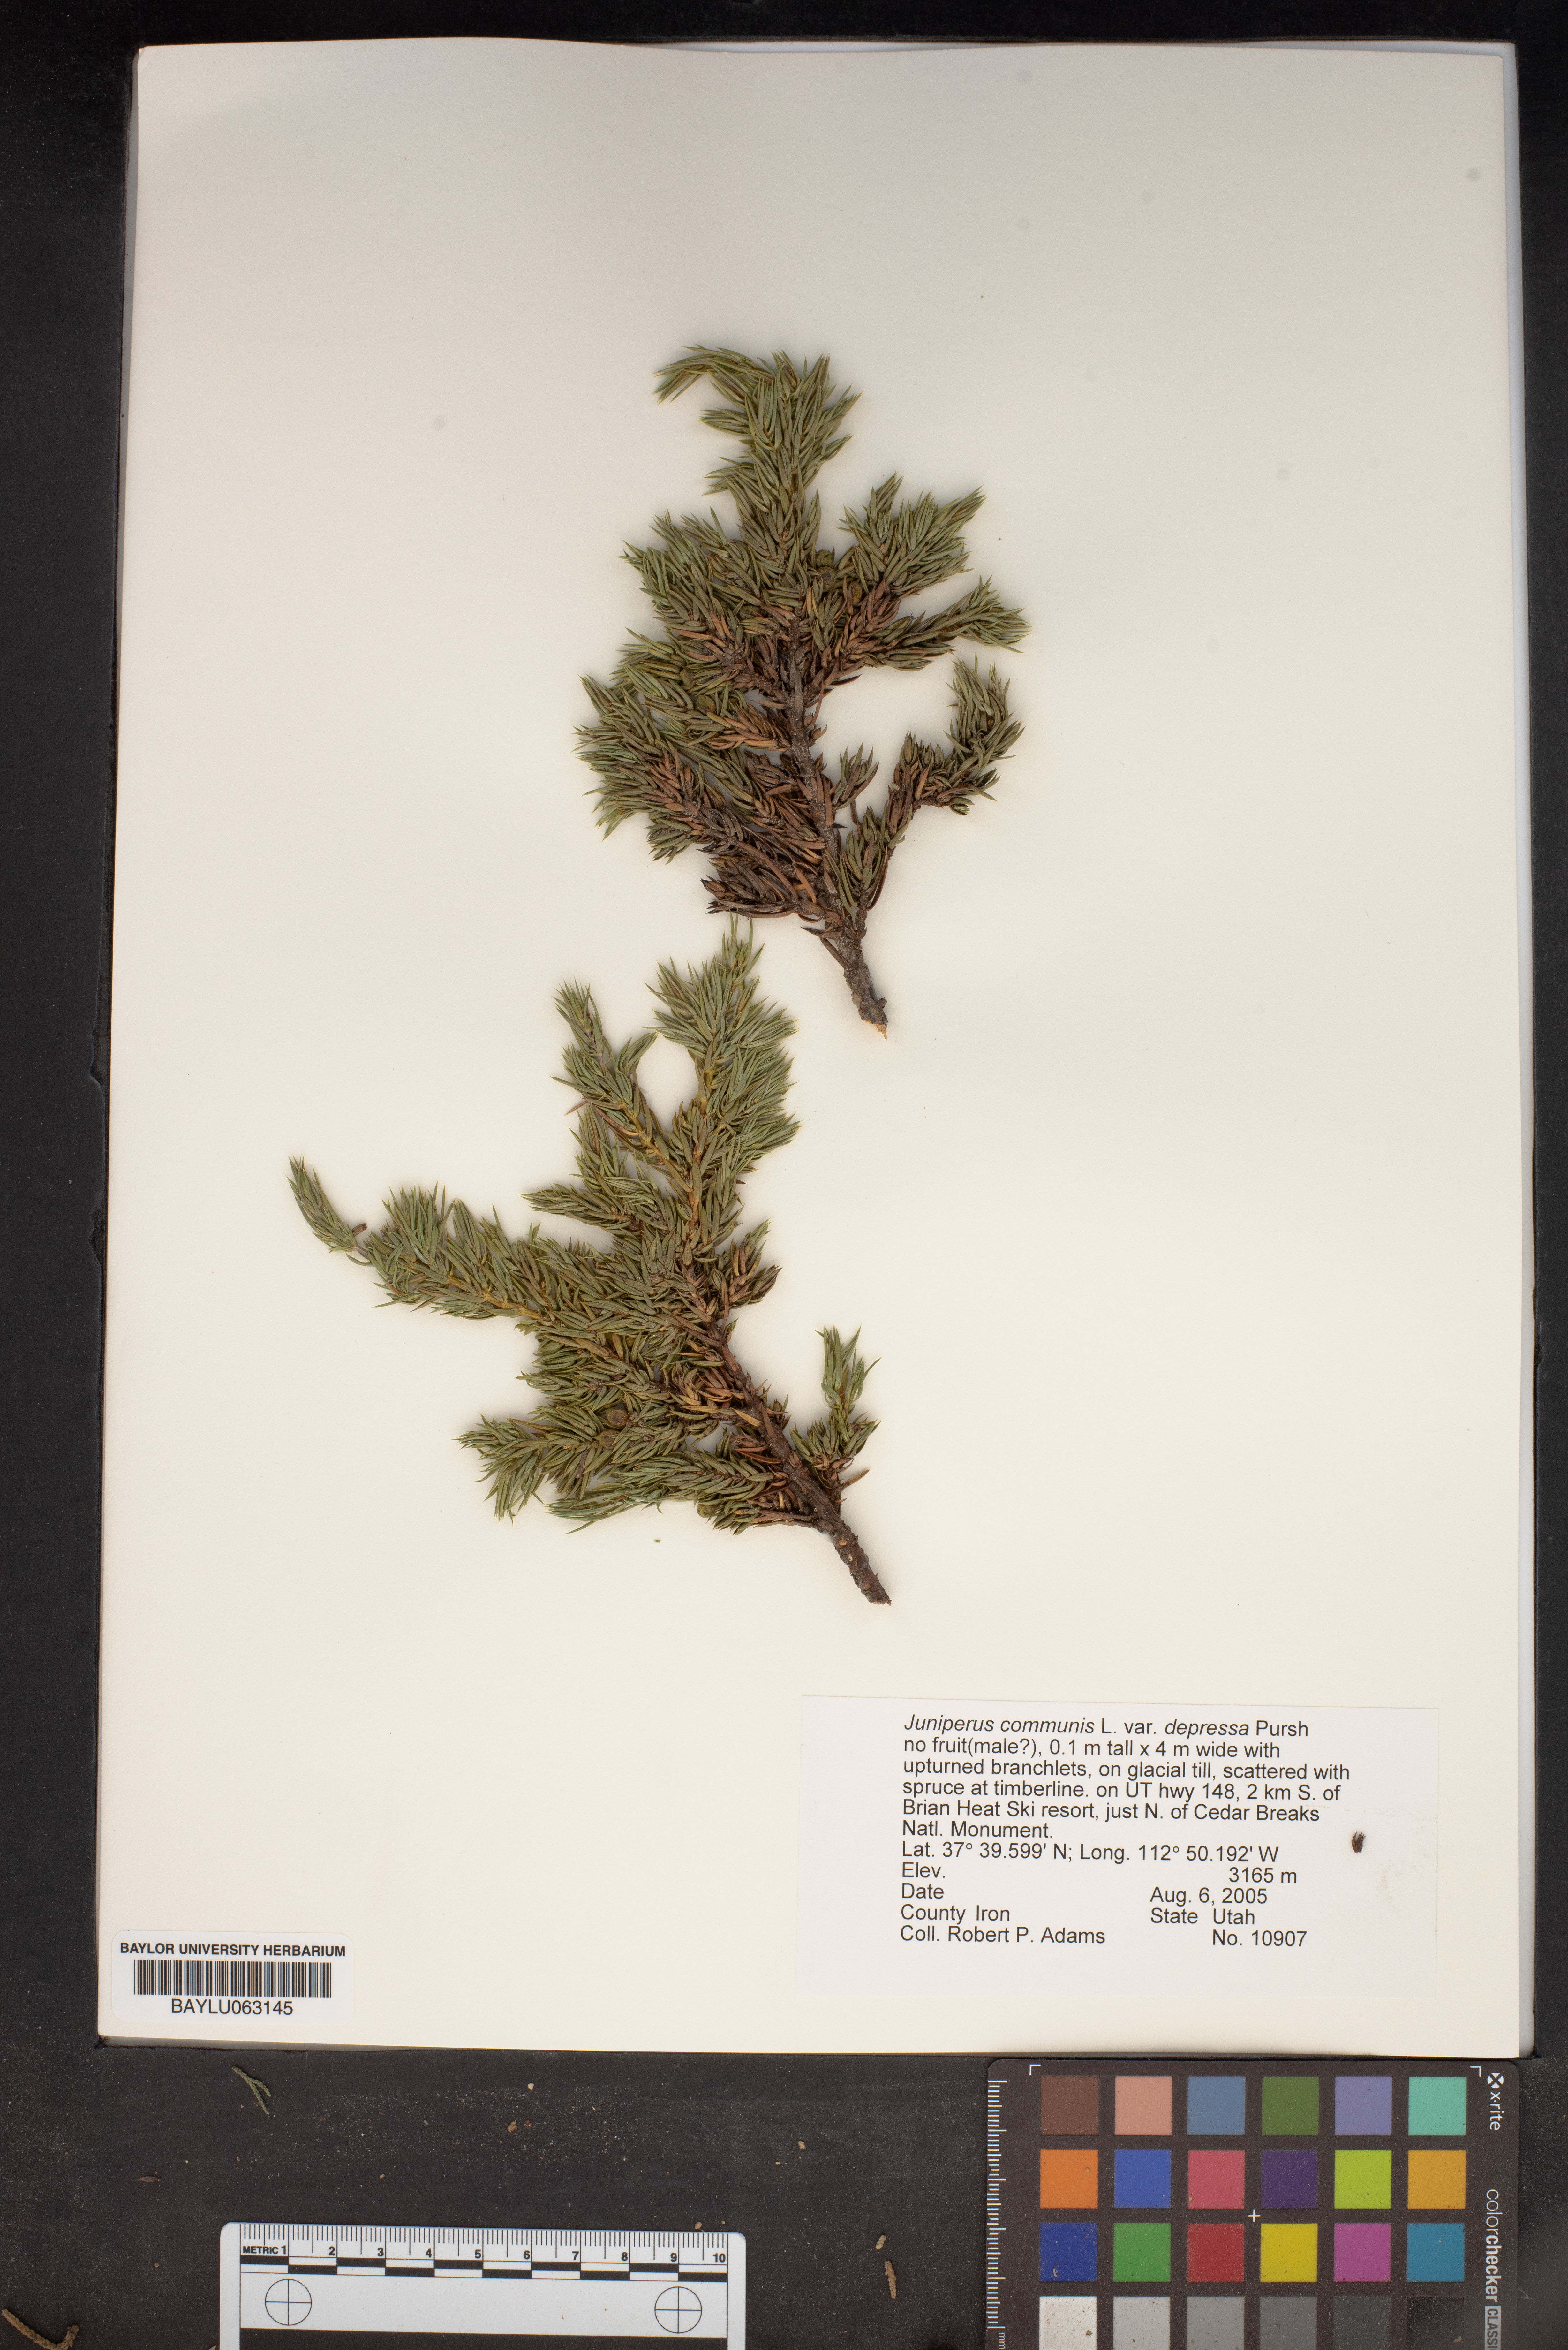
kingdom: Plantae
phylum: Tracheophyta
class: Pinopsida
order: Pinales
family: Cupressaceae
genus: Juniperus
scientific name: Juniperus communis
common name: Common juniper
